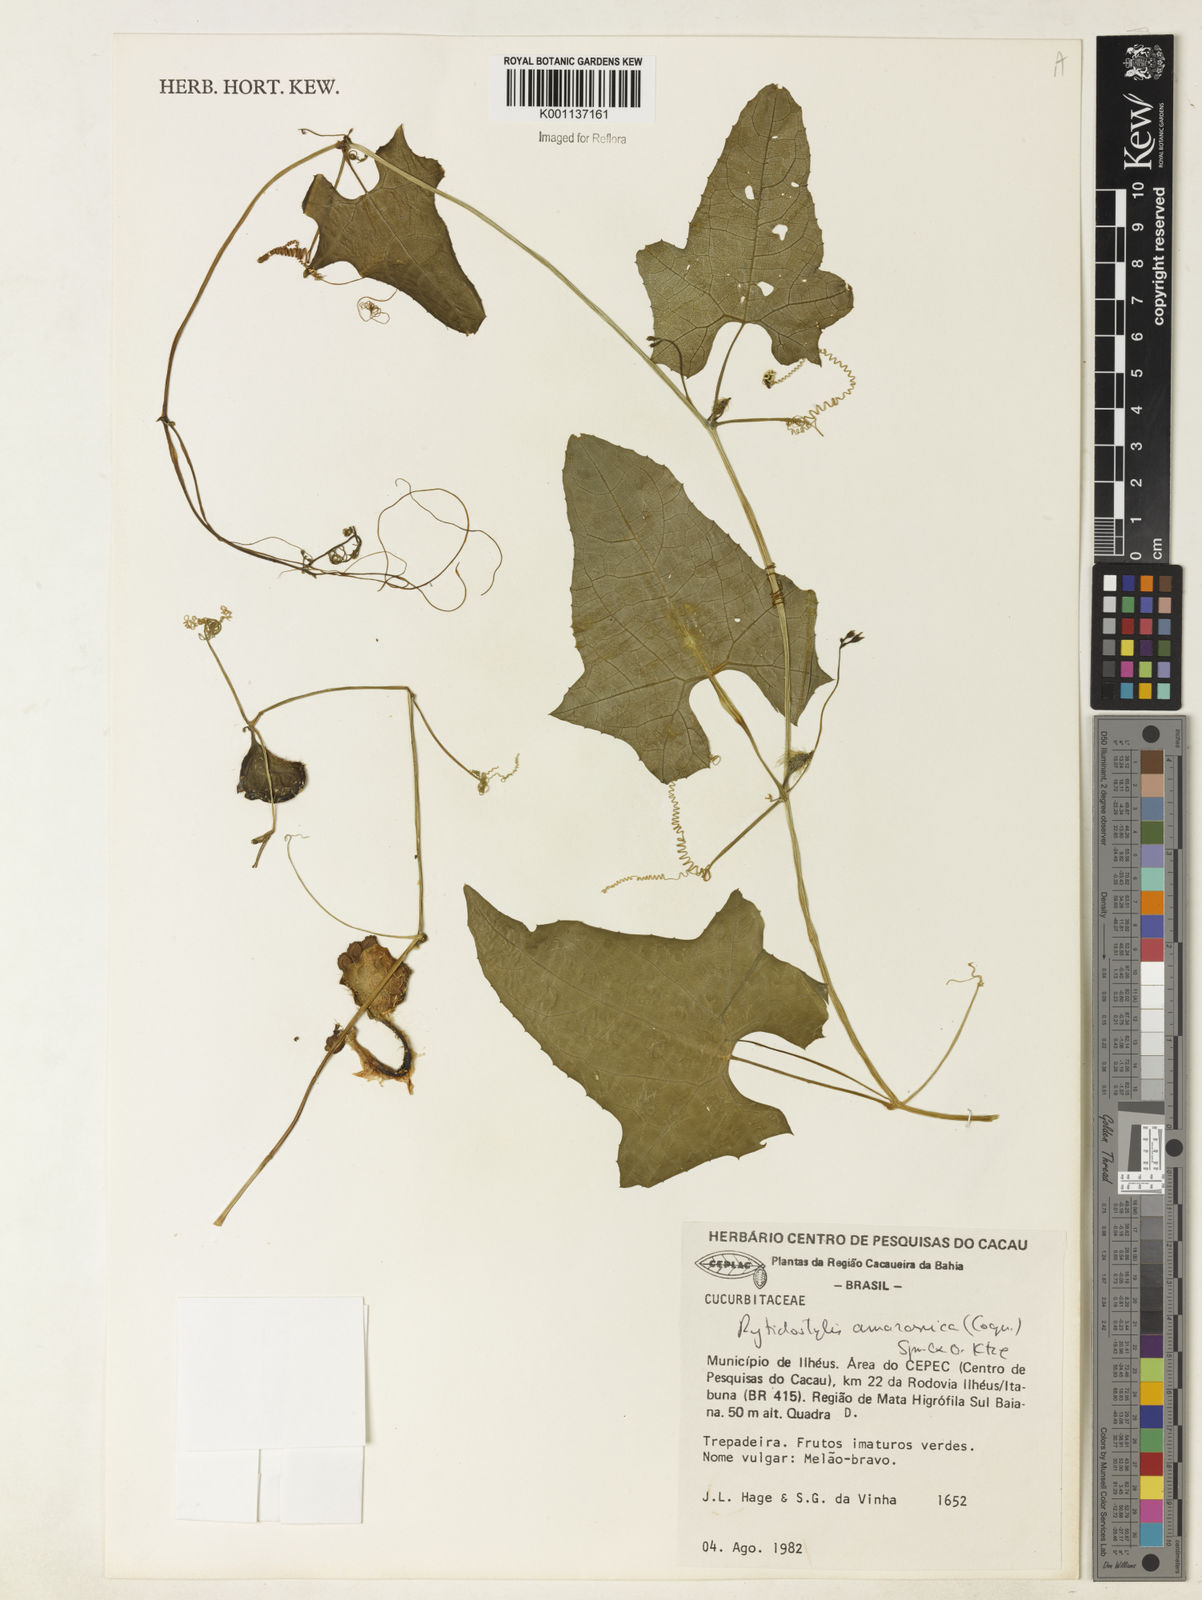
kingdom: Plantae
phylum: Tracheophyta
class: Magnoliopsida
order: Cucurbitales
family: Cucurbitaceae
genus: Cyclanthera
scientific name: Cyclanthera carthagenensis
